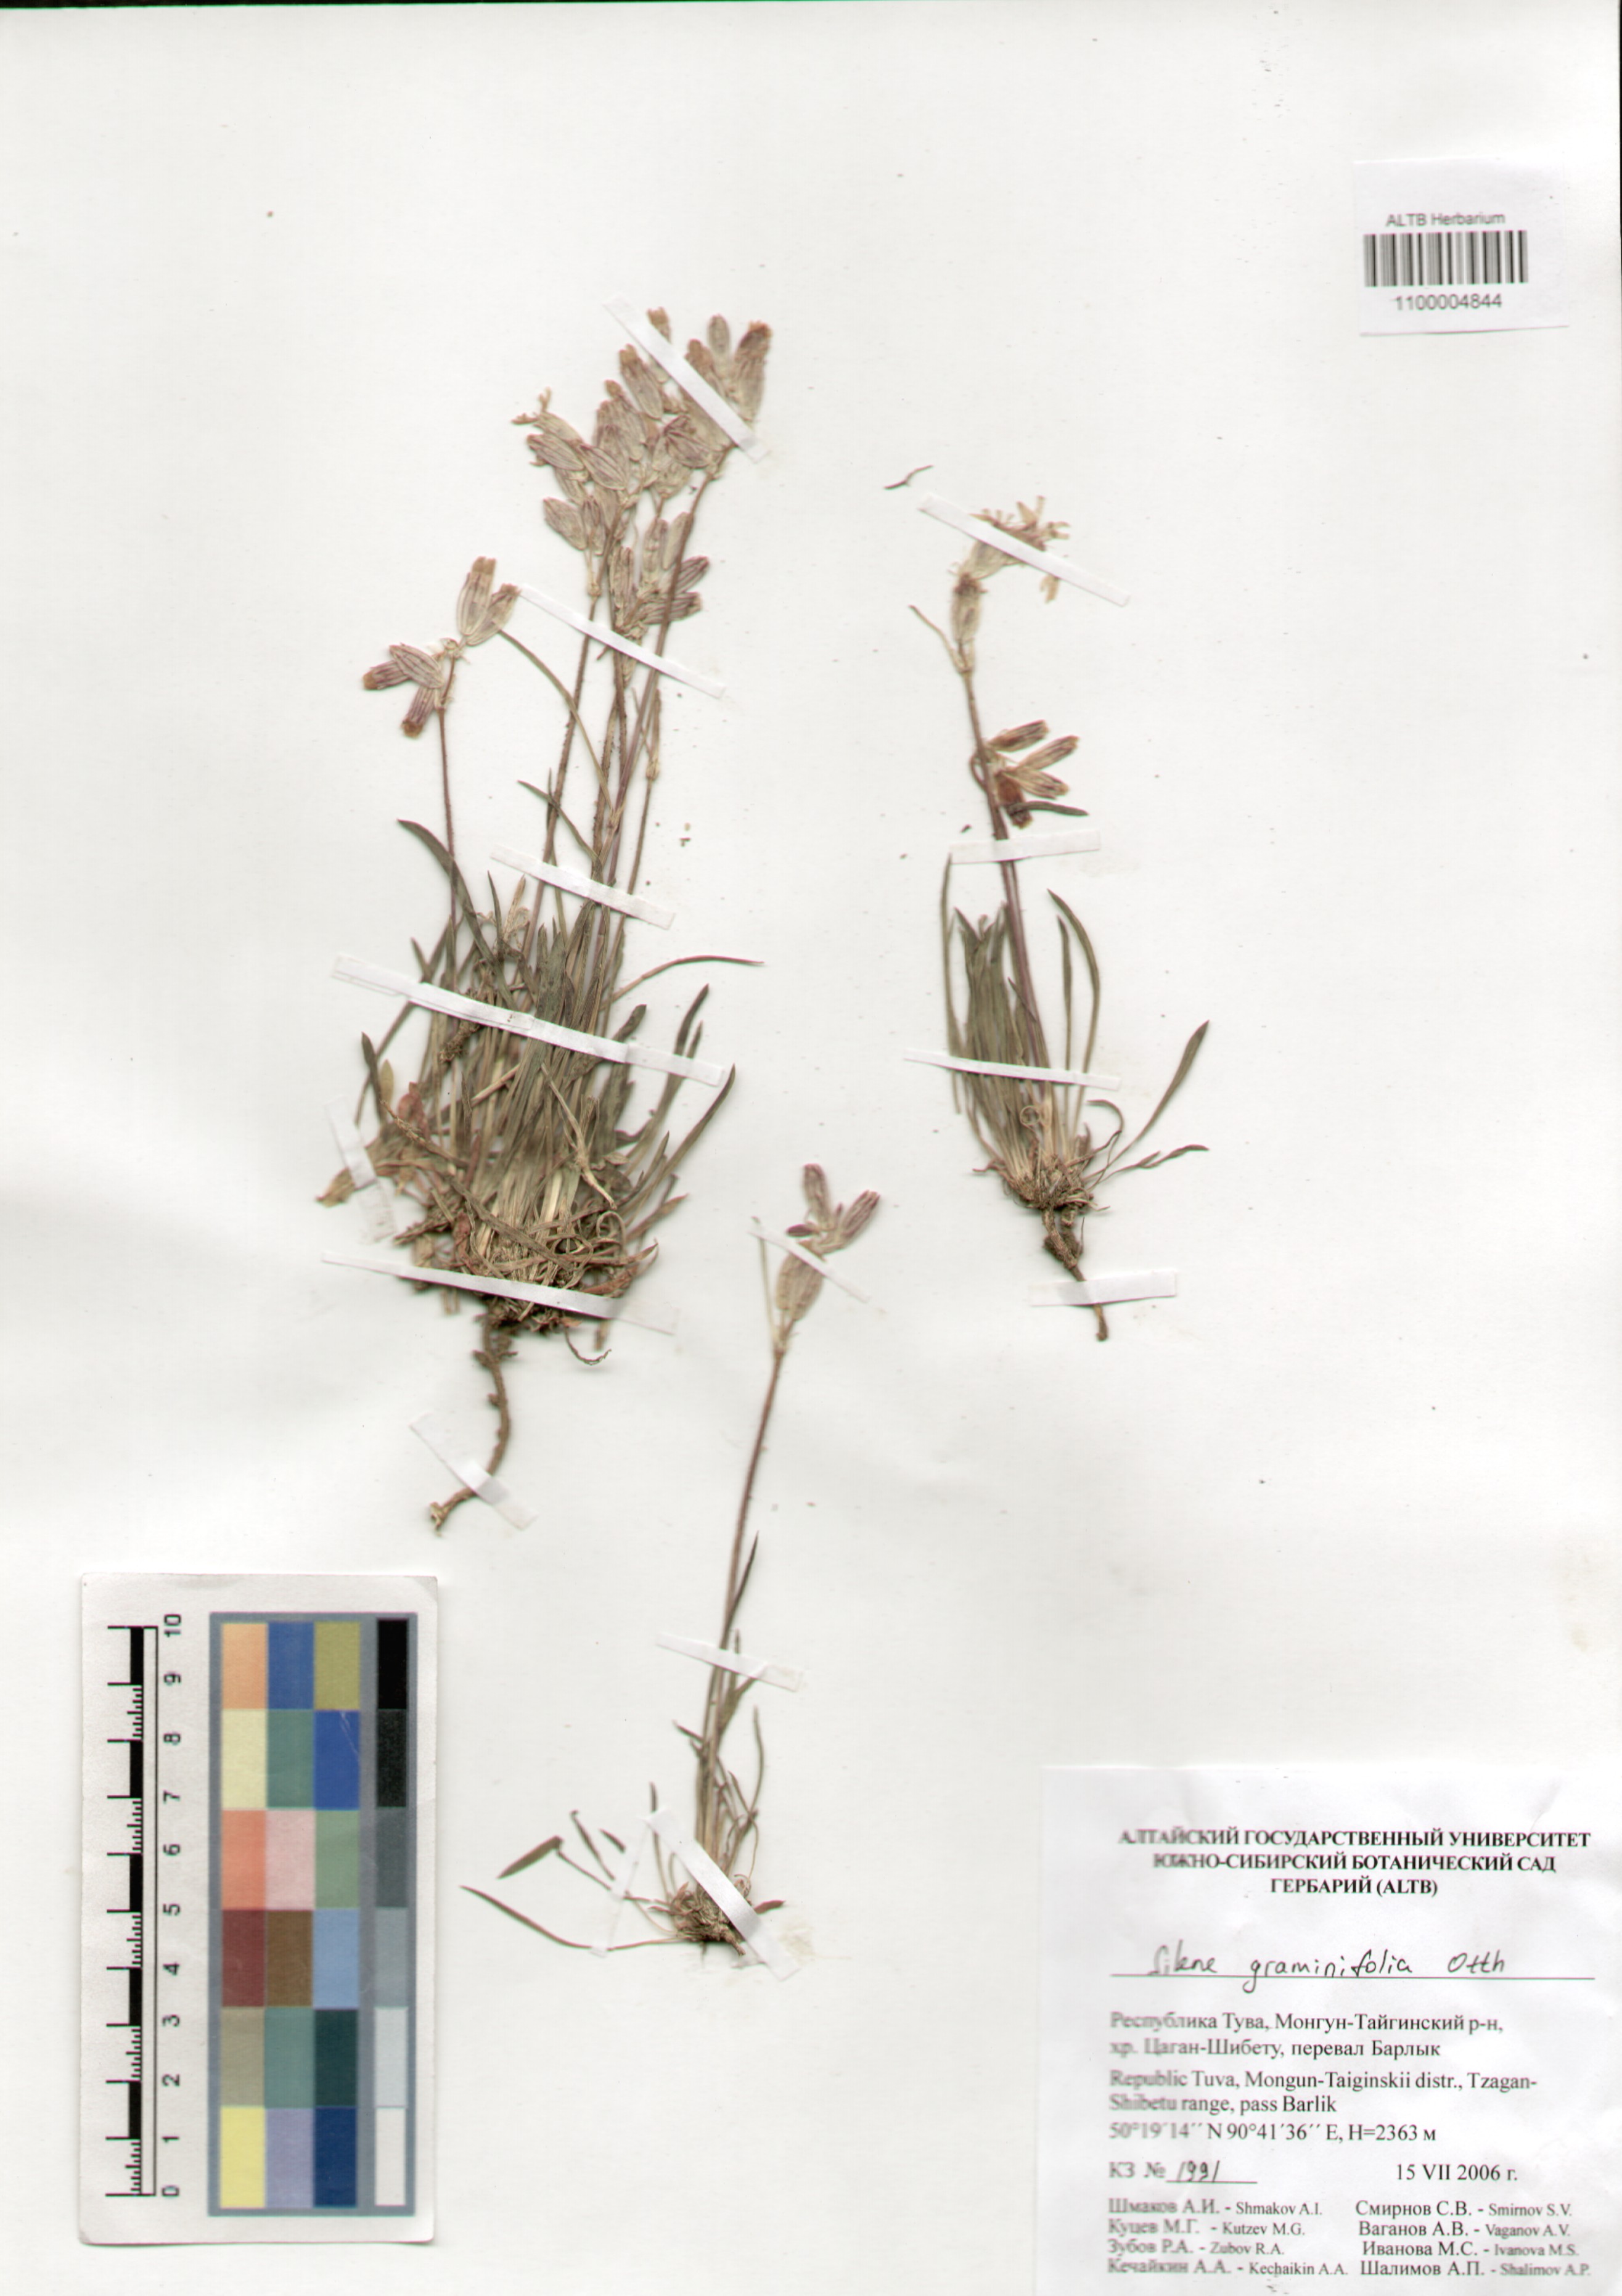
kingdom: Plantae
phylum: Tracheophyta
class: Magnoliopsida
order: Caryophyllales
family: Caryophyllaceae
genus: Silene
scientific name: Silene graminifolia
